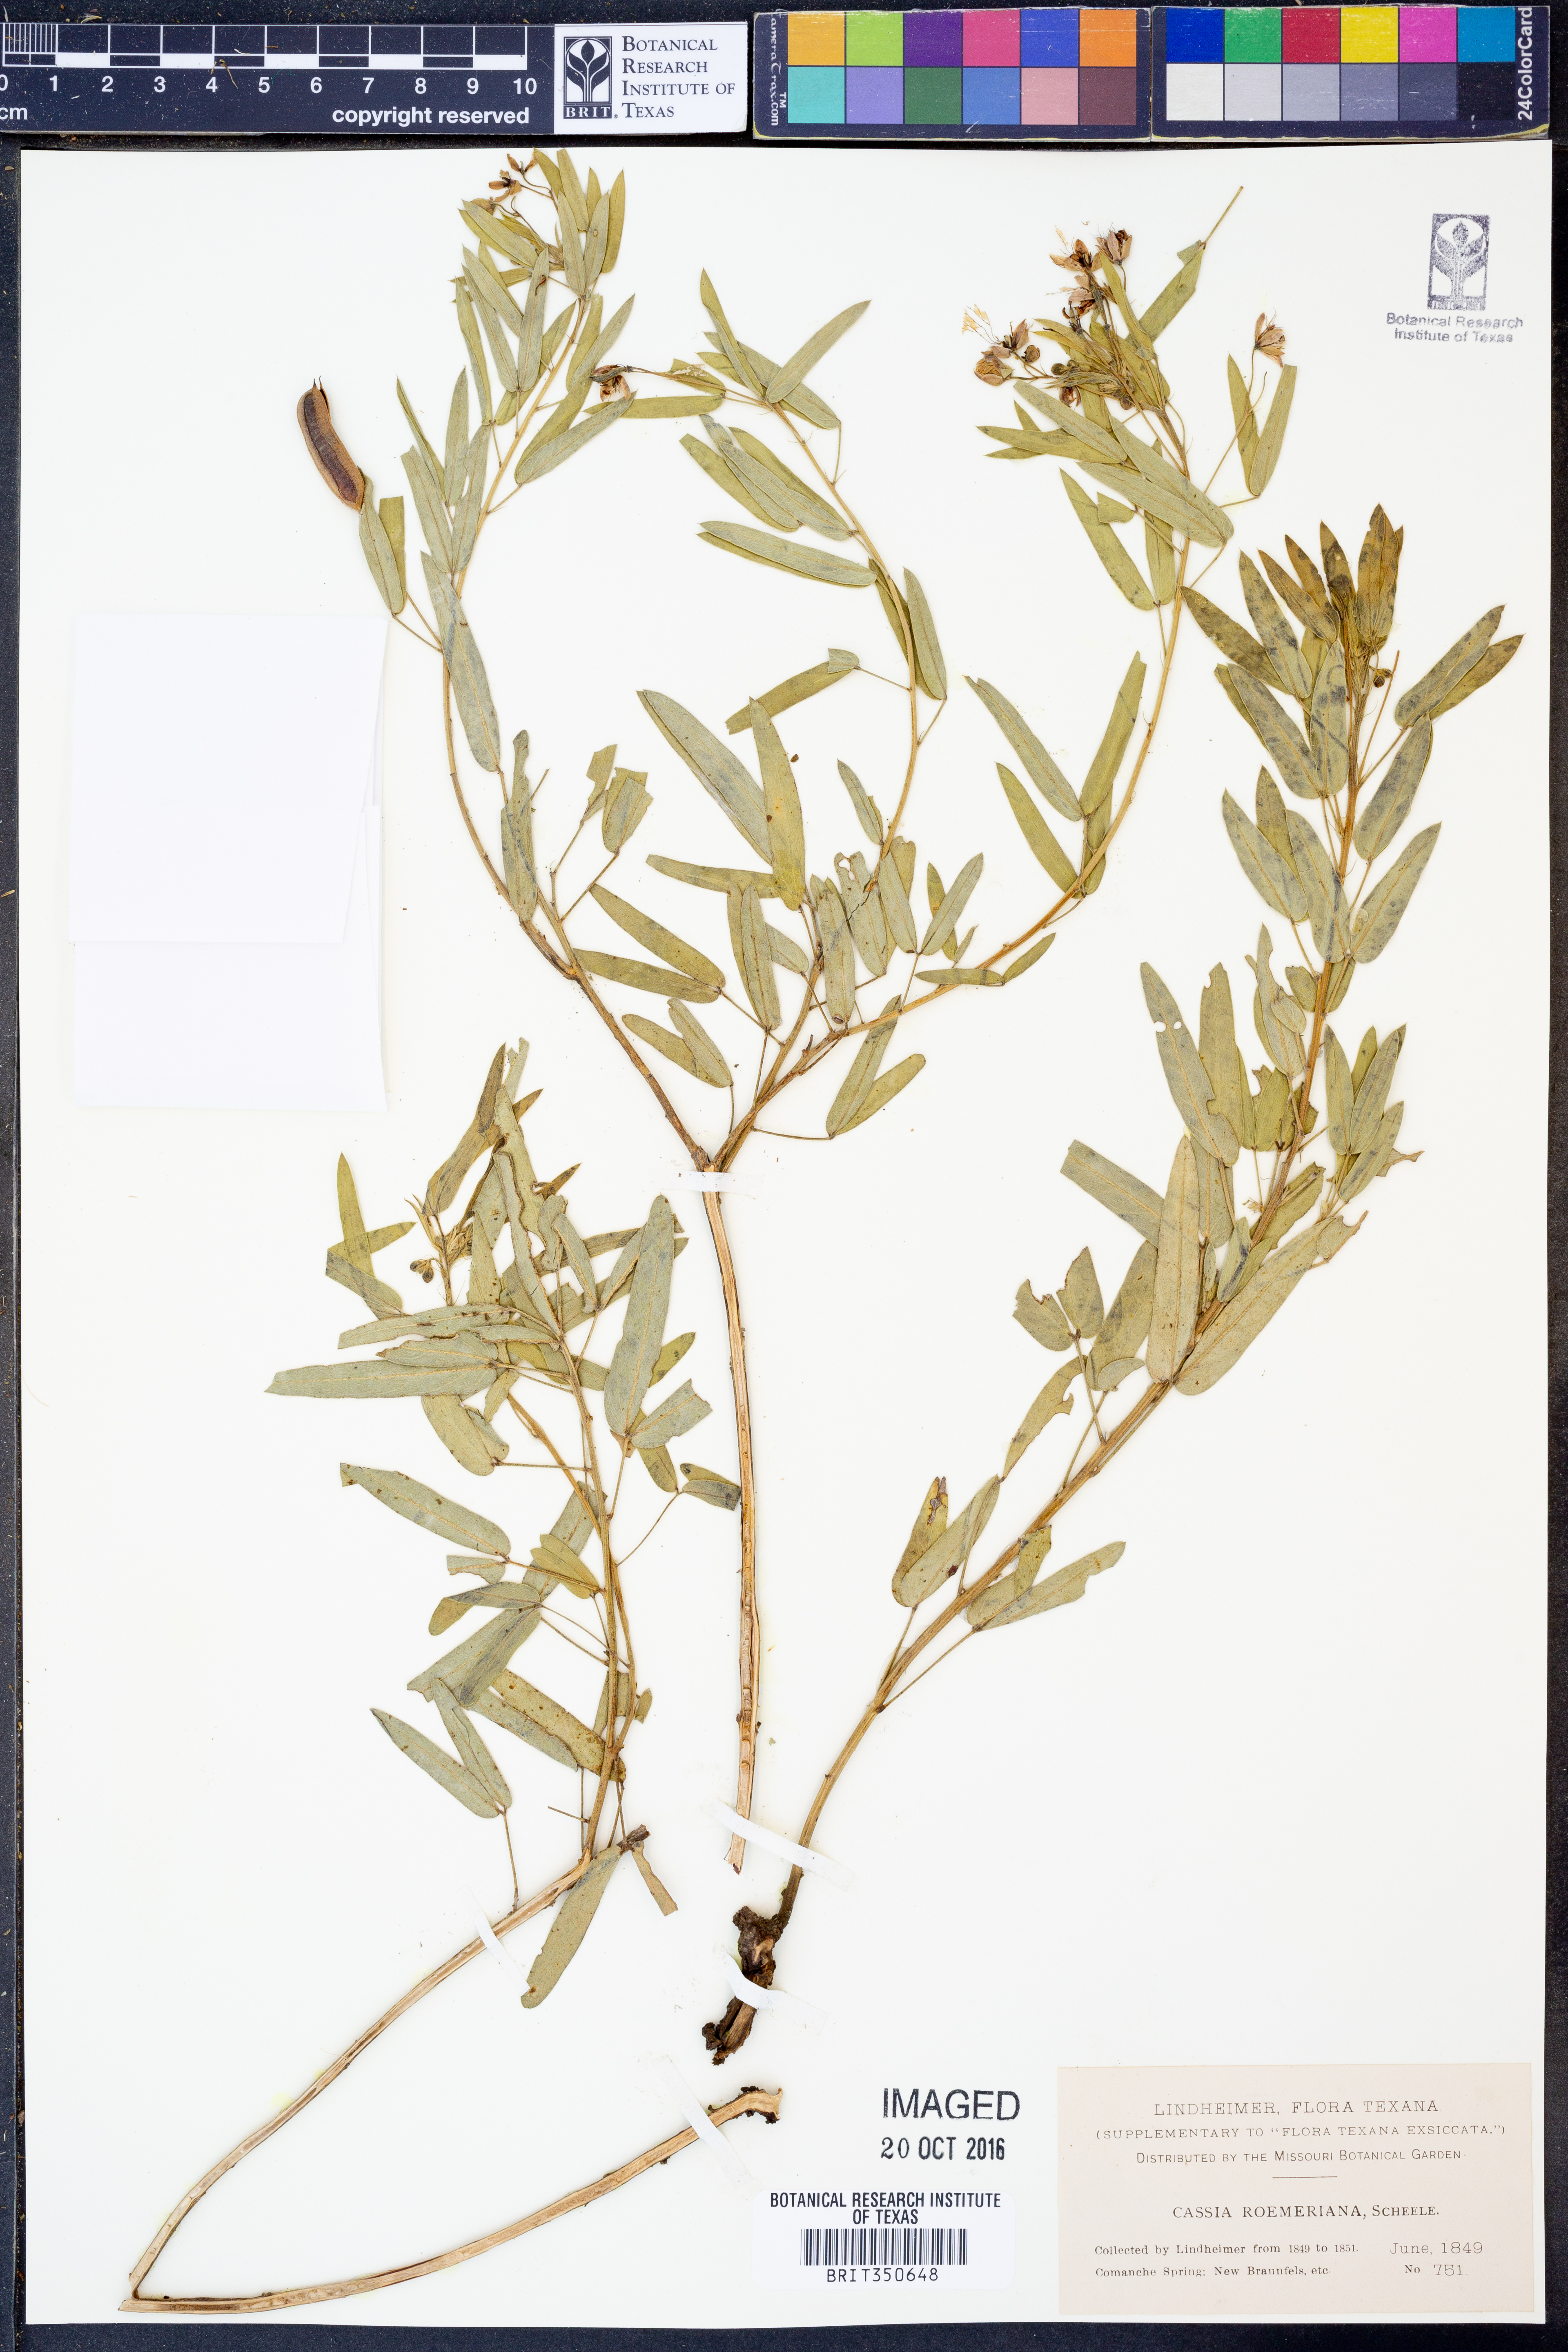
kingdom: Plantae
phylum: Tracheophyta
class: Magnoliopsida
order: Fabales
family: Fabaceae
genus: Senna
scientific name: Senna roemeriana
